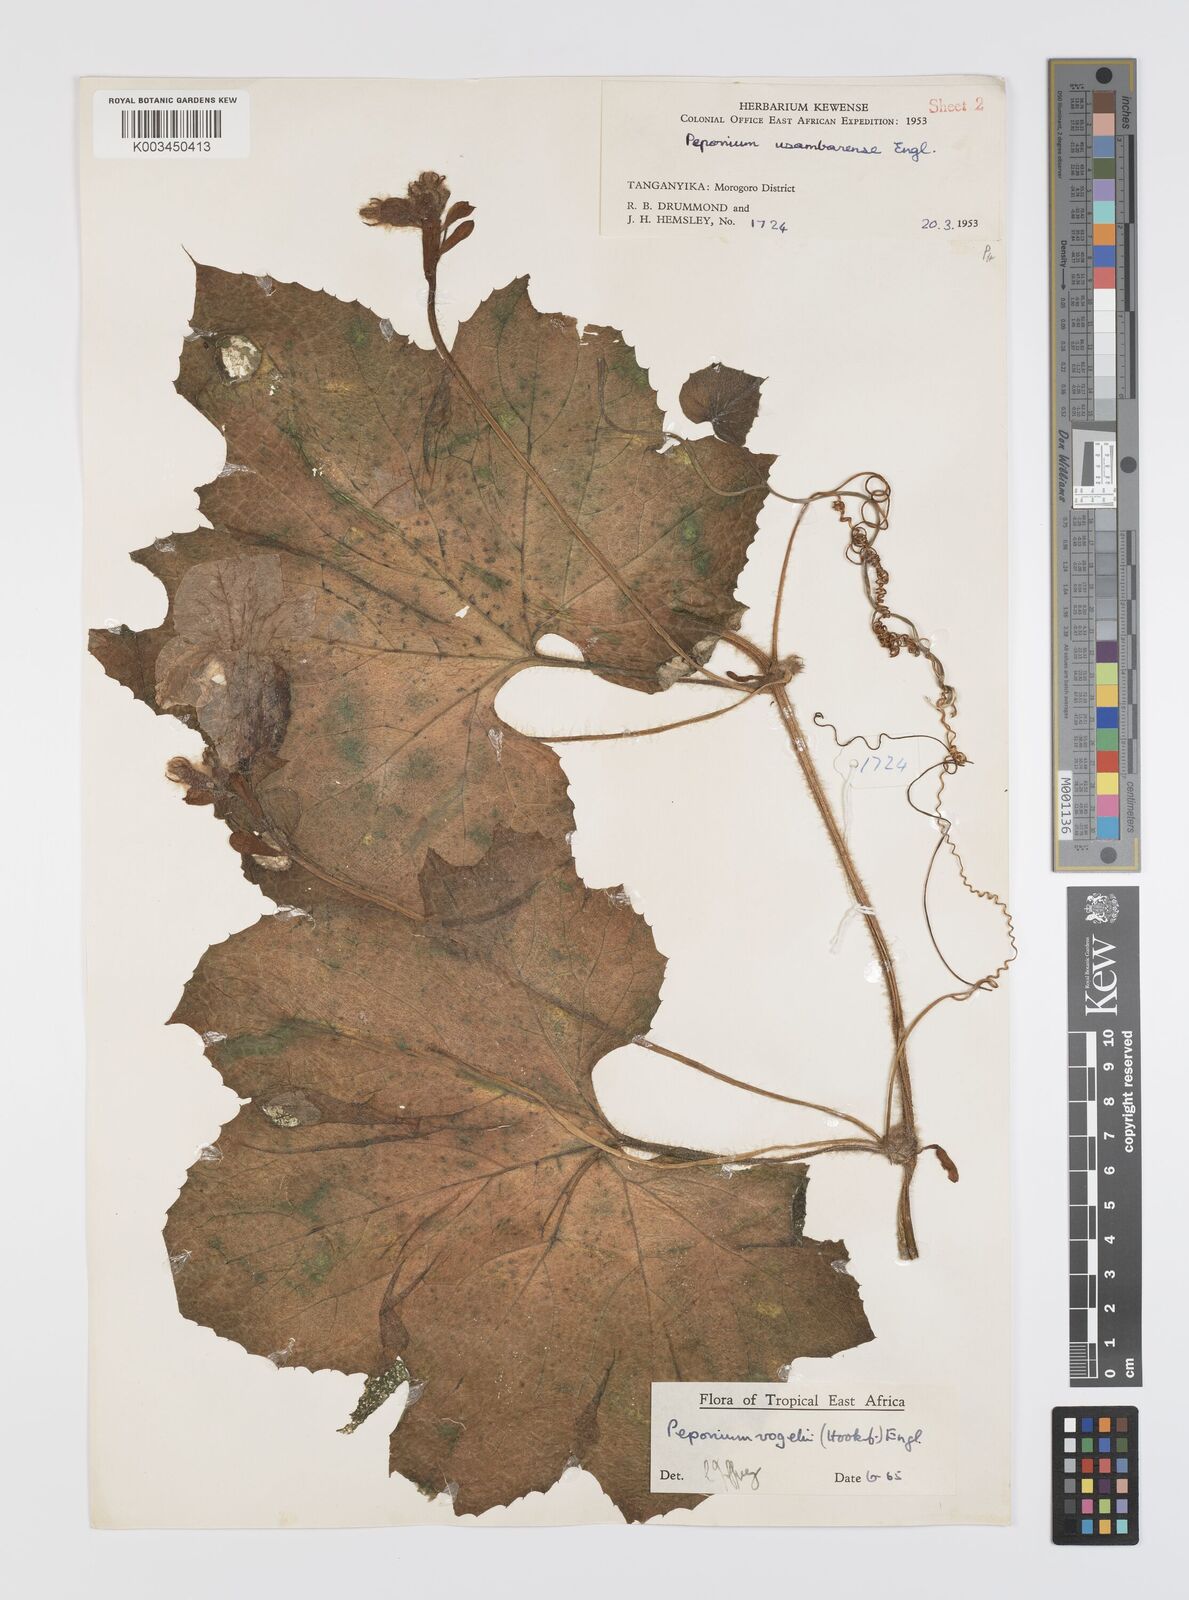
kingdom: Plantae
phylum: Tracheophyta
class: Magnoliopsida
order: Cucurbitales
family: Cucurbitaceae
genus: Peponium
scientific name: Peponium vogelii
